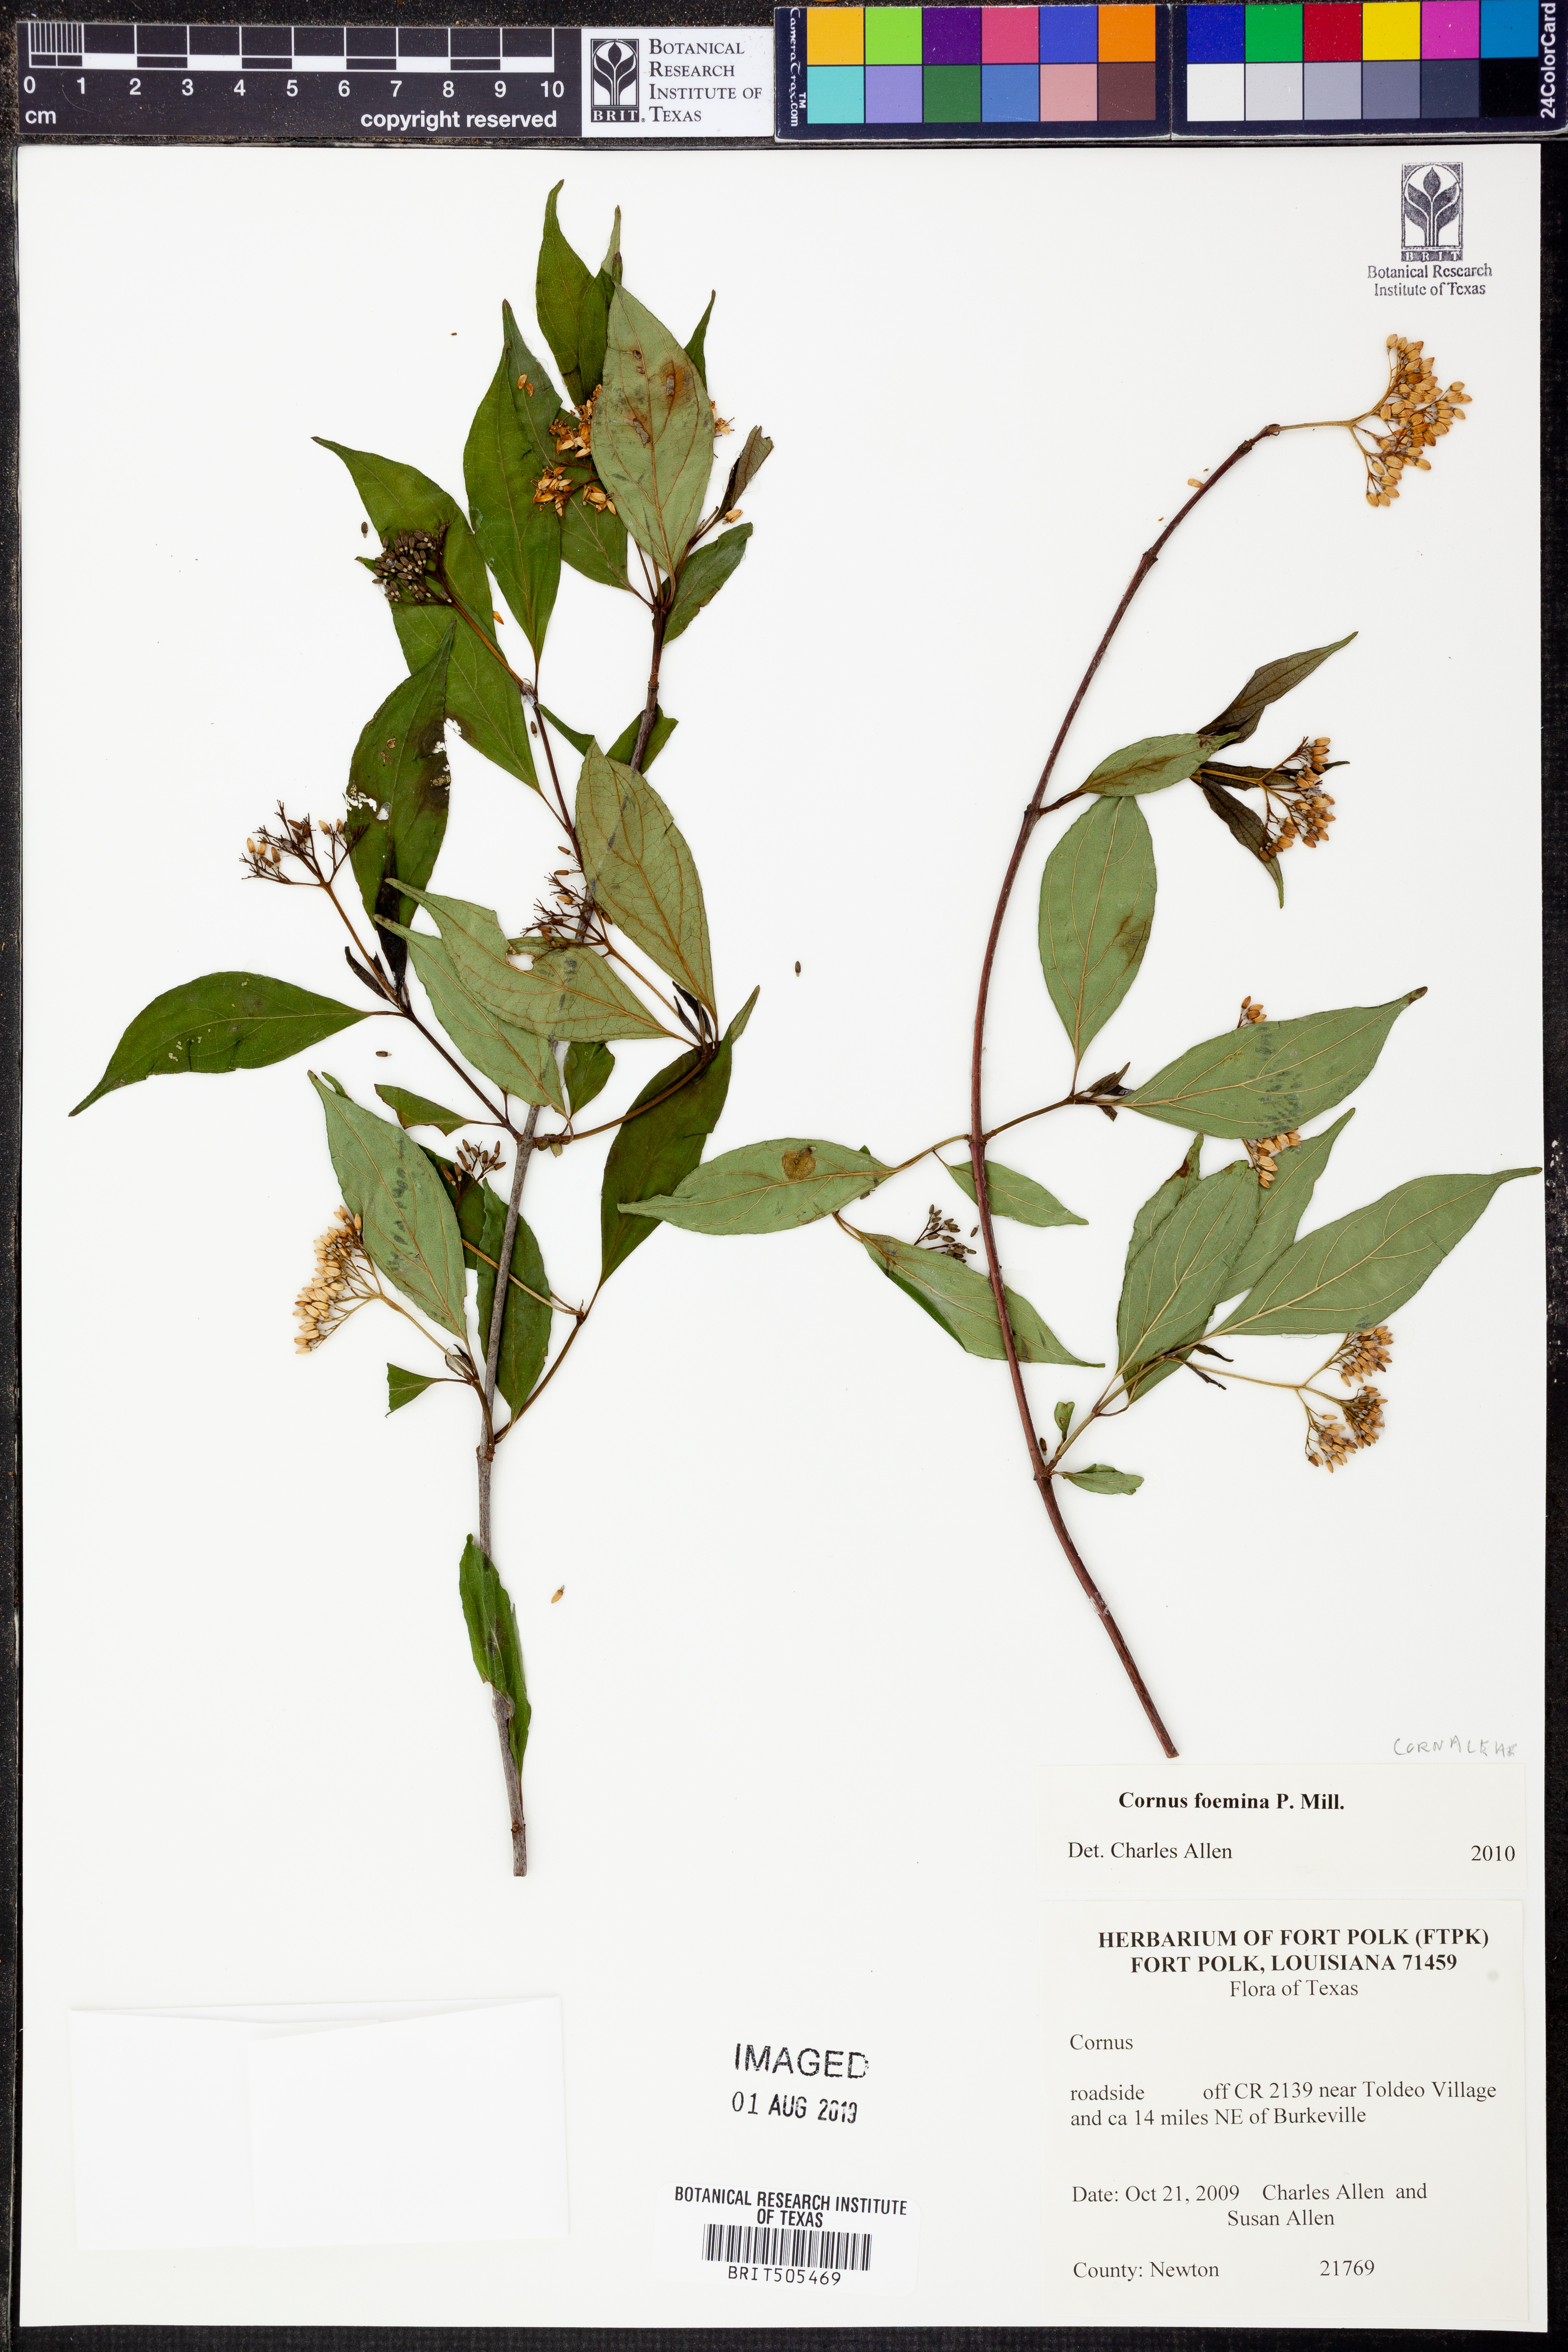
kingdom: Plantae
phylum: Tracheophyta
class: Magnoliopsida
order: Cornales
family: Cornaceae
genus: Cornus
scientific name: Cornus foemina
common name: Swamp dogwood
